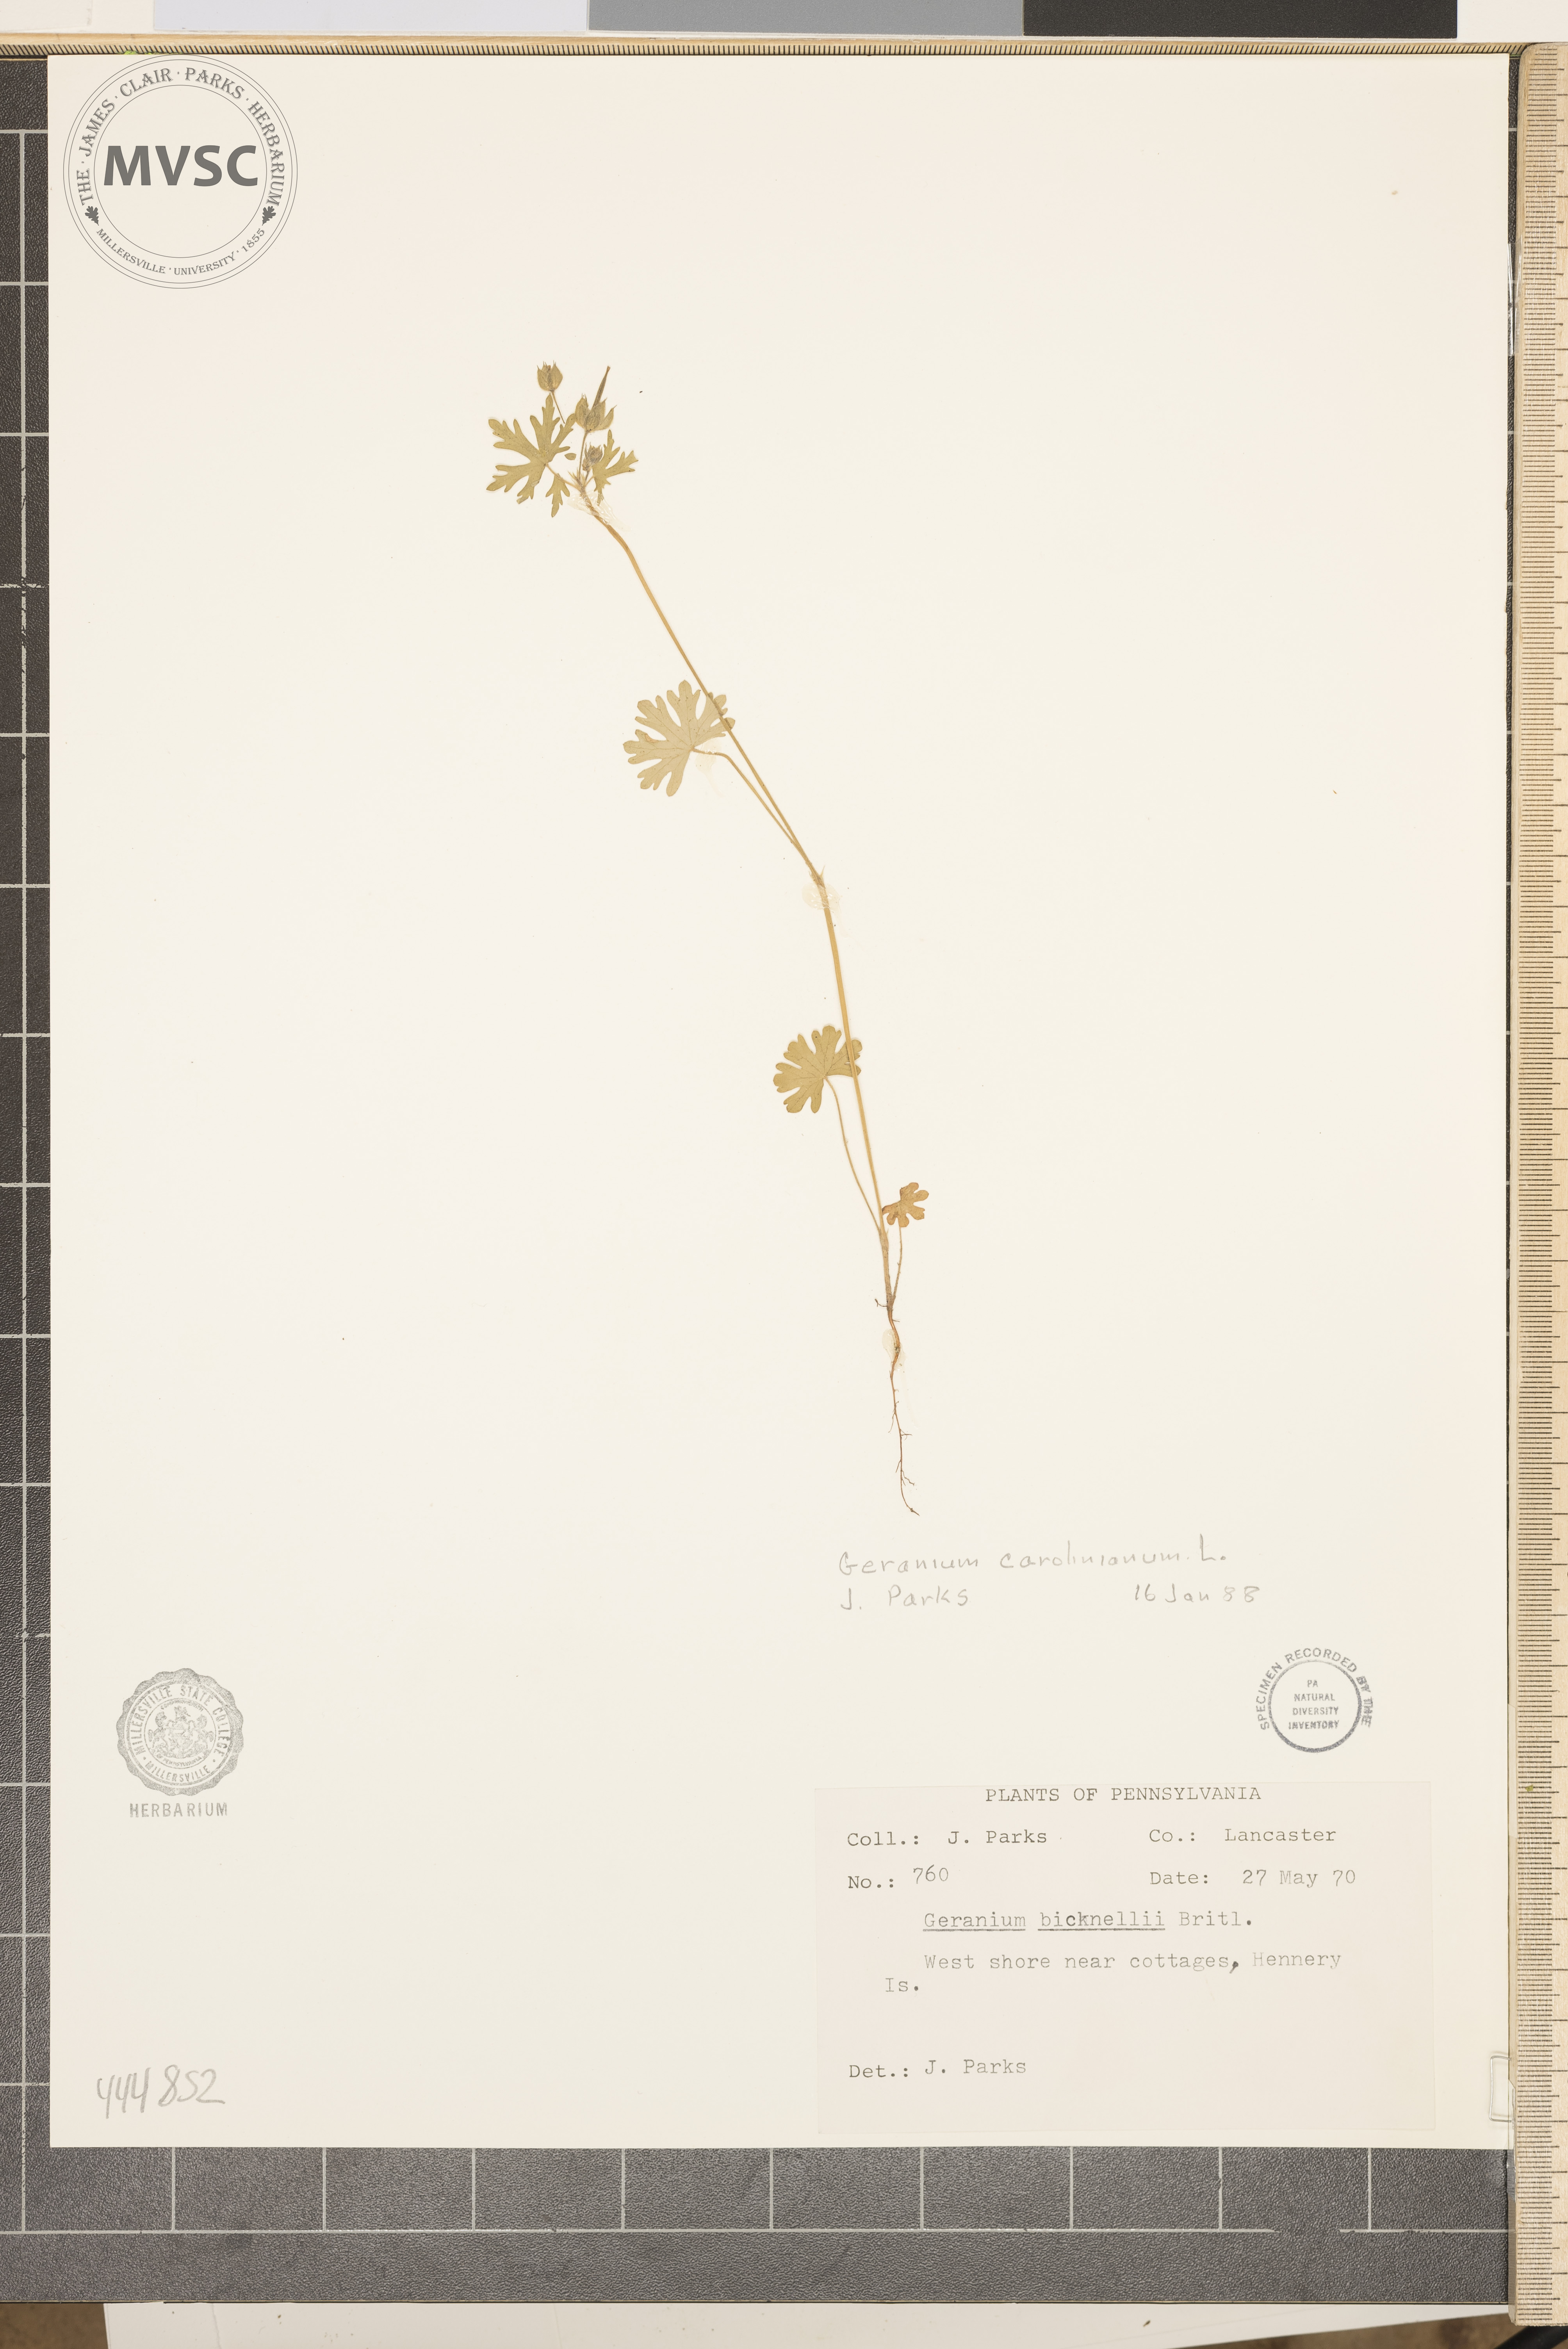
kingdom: Plantae
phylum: Tracheophyta
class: Magnoliopsida
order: Geraniales
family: Geraniaceae
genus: Geranium
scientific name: Geranium carolinianum
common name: Carolina crane's-bill
